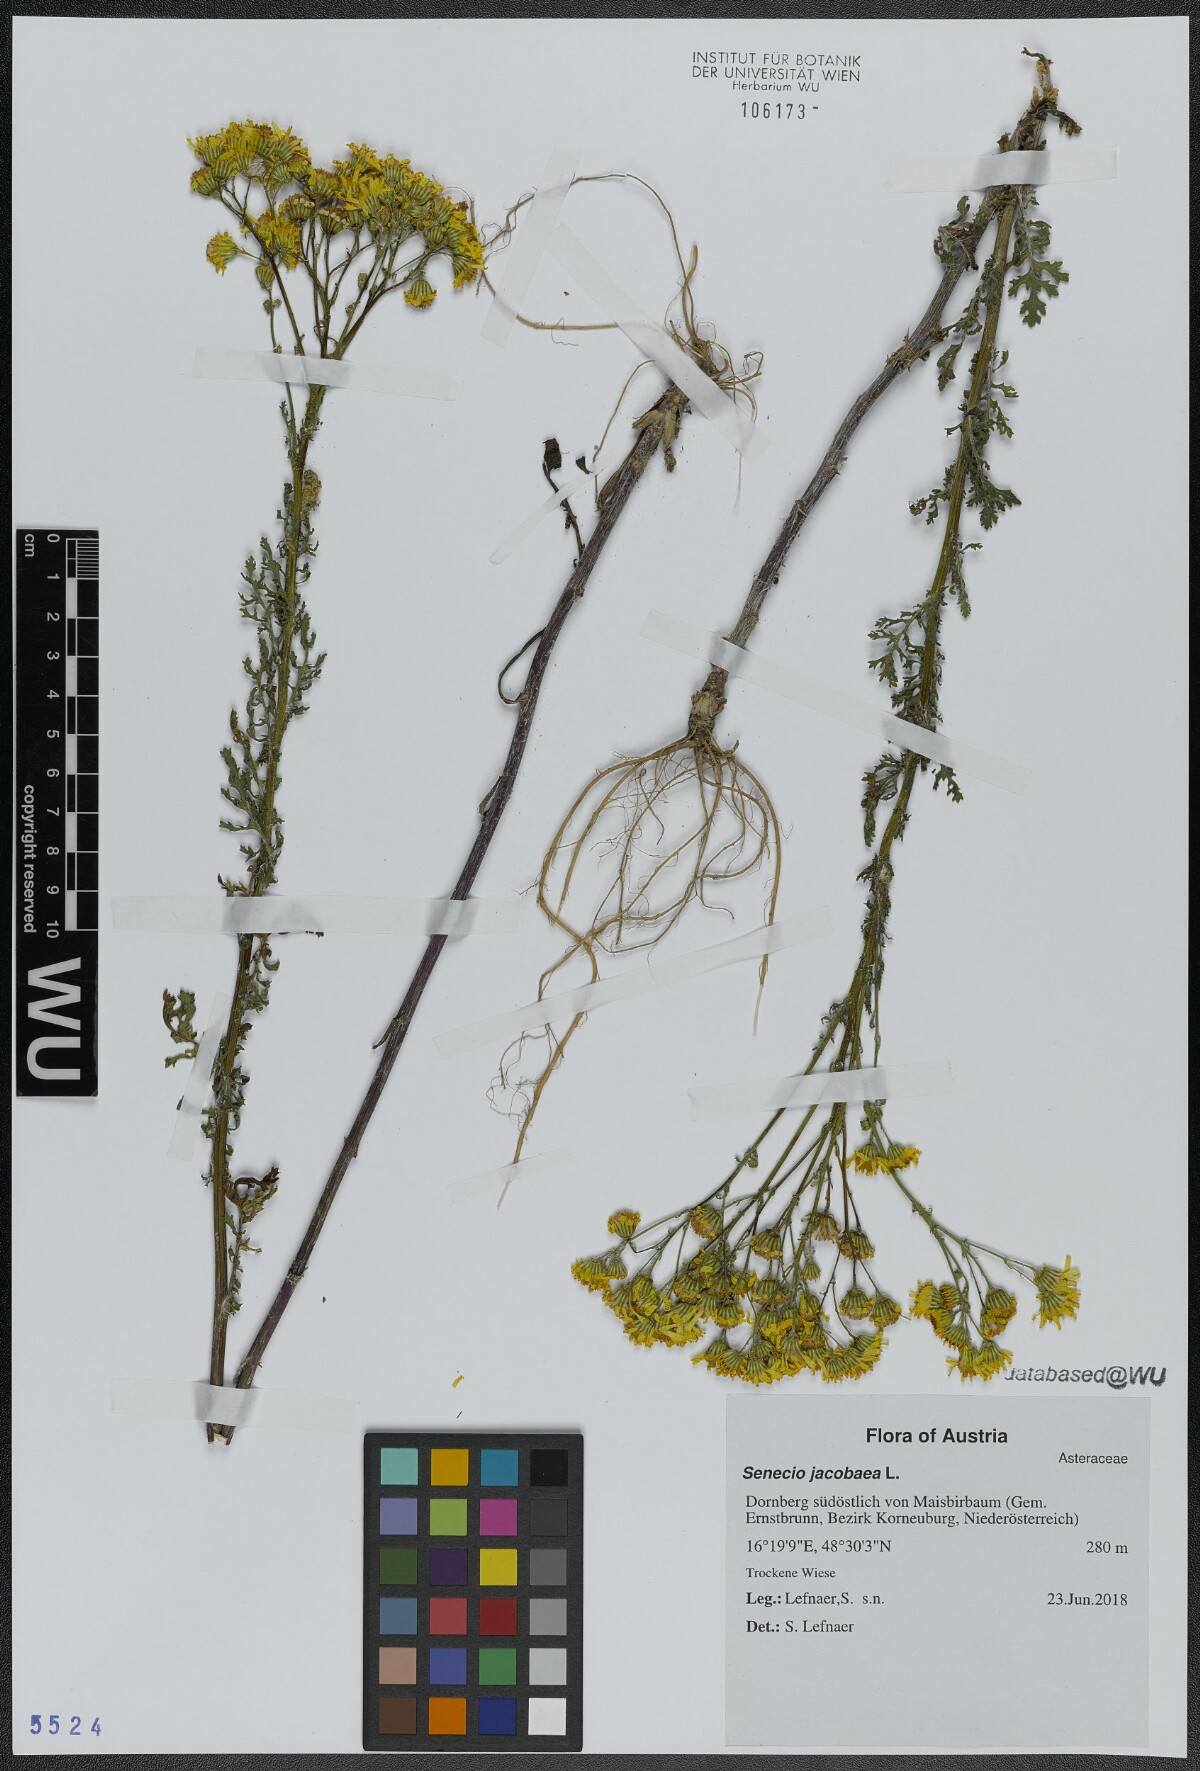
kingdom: Plantae
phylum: Tracheophyta
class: Magnoliopsida
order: Asterales
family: Asteraceae
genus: Jacobaea
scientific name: Jacobaea vulgaris
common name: Stinking willie
